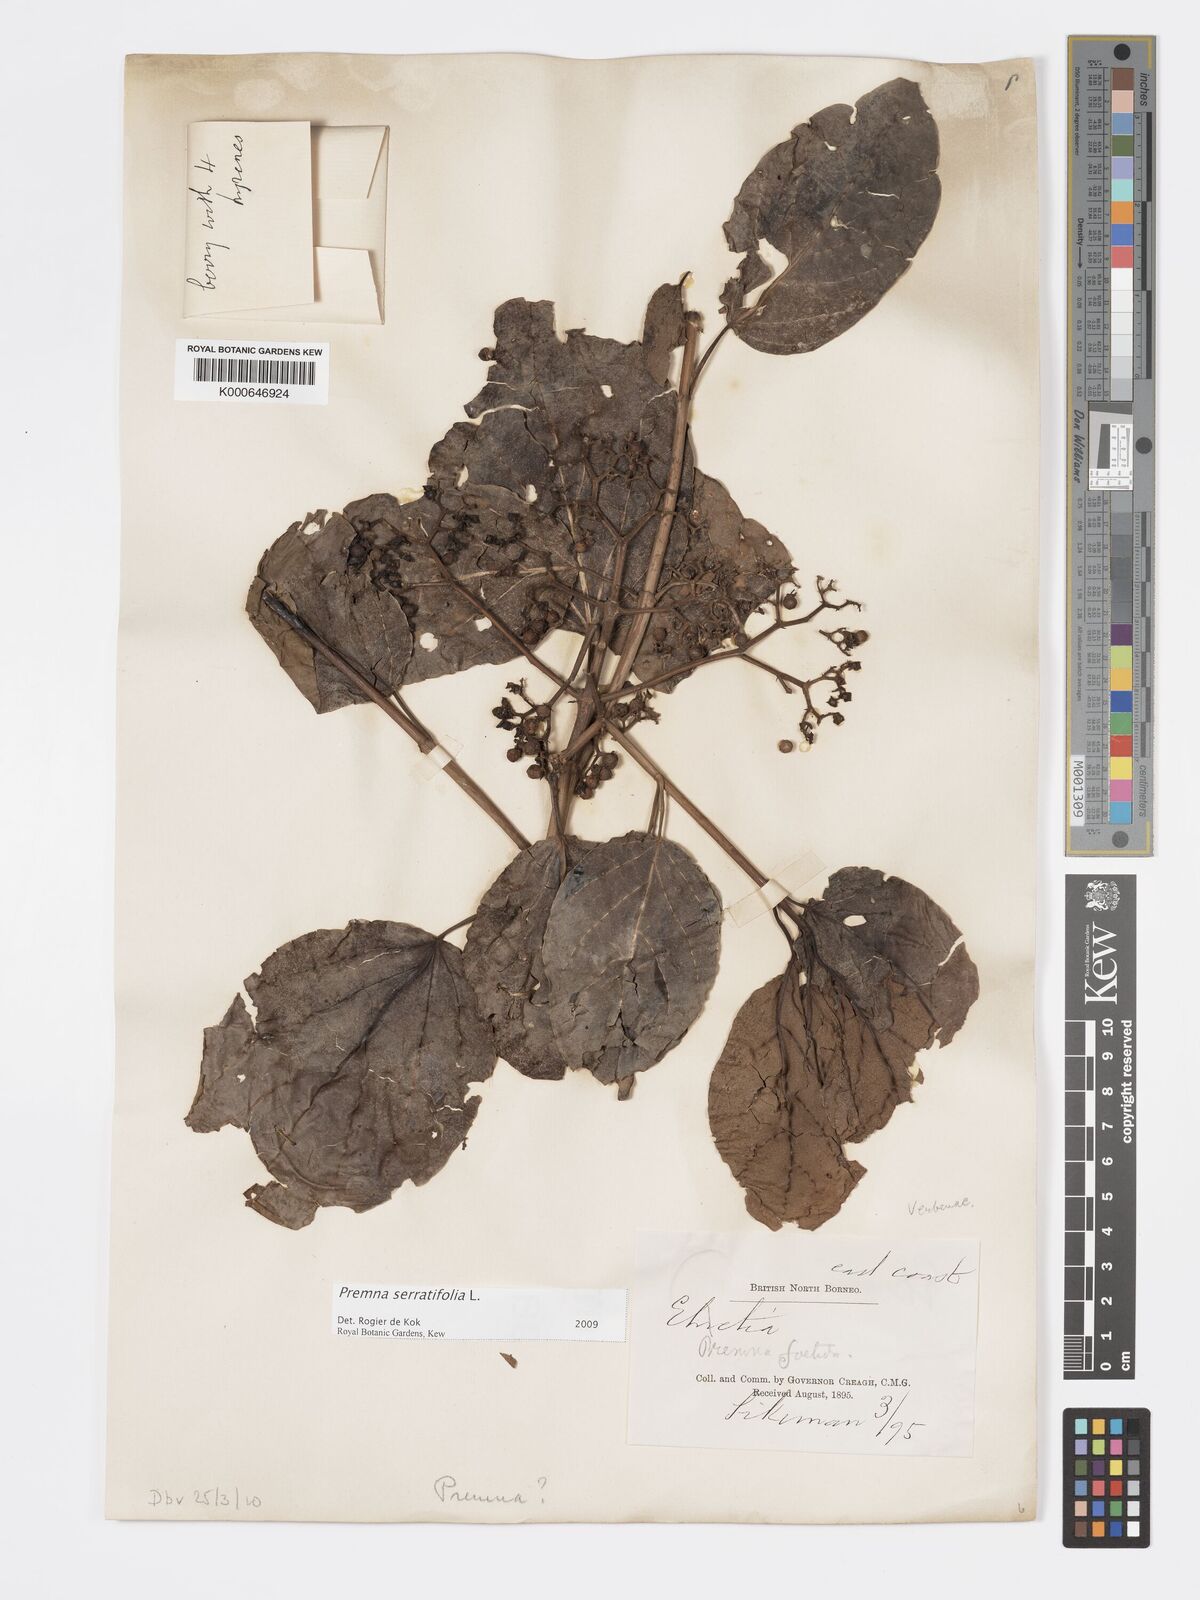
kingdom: Plantae
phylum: Tracheophyta
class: Magnoliopsida
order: Lamiales
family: Lamiaceae
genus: Premna
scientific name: Premna serratifolia
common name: Bastard guelder
